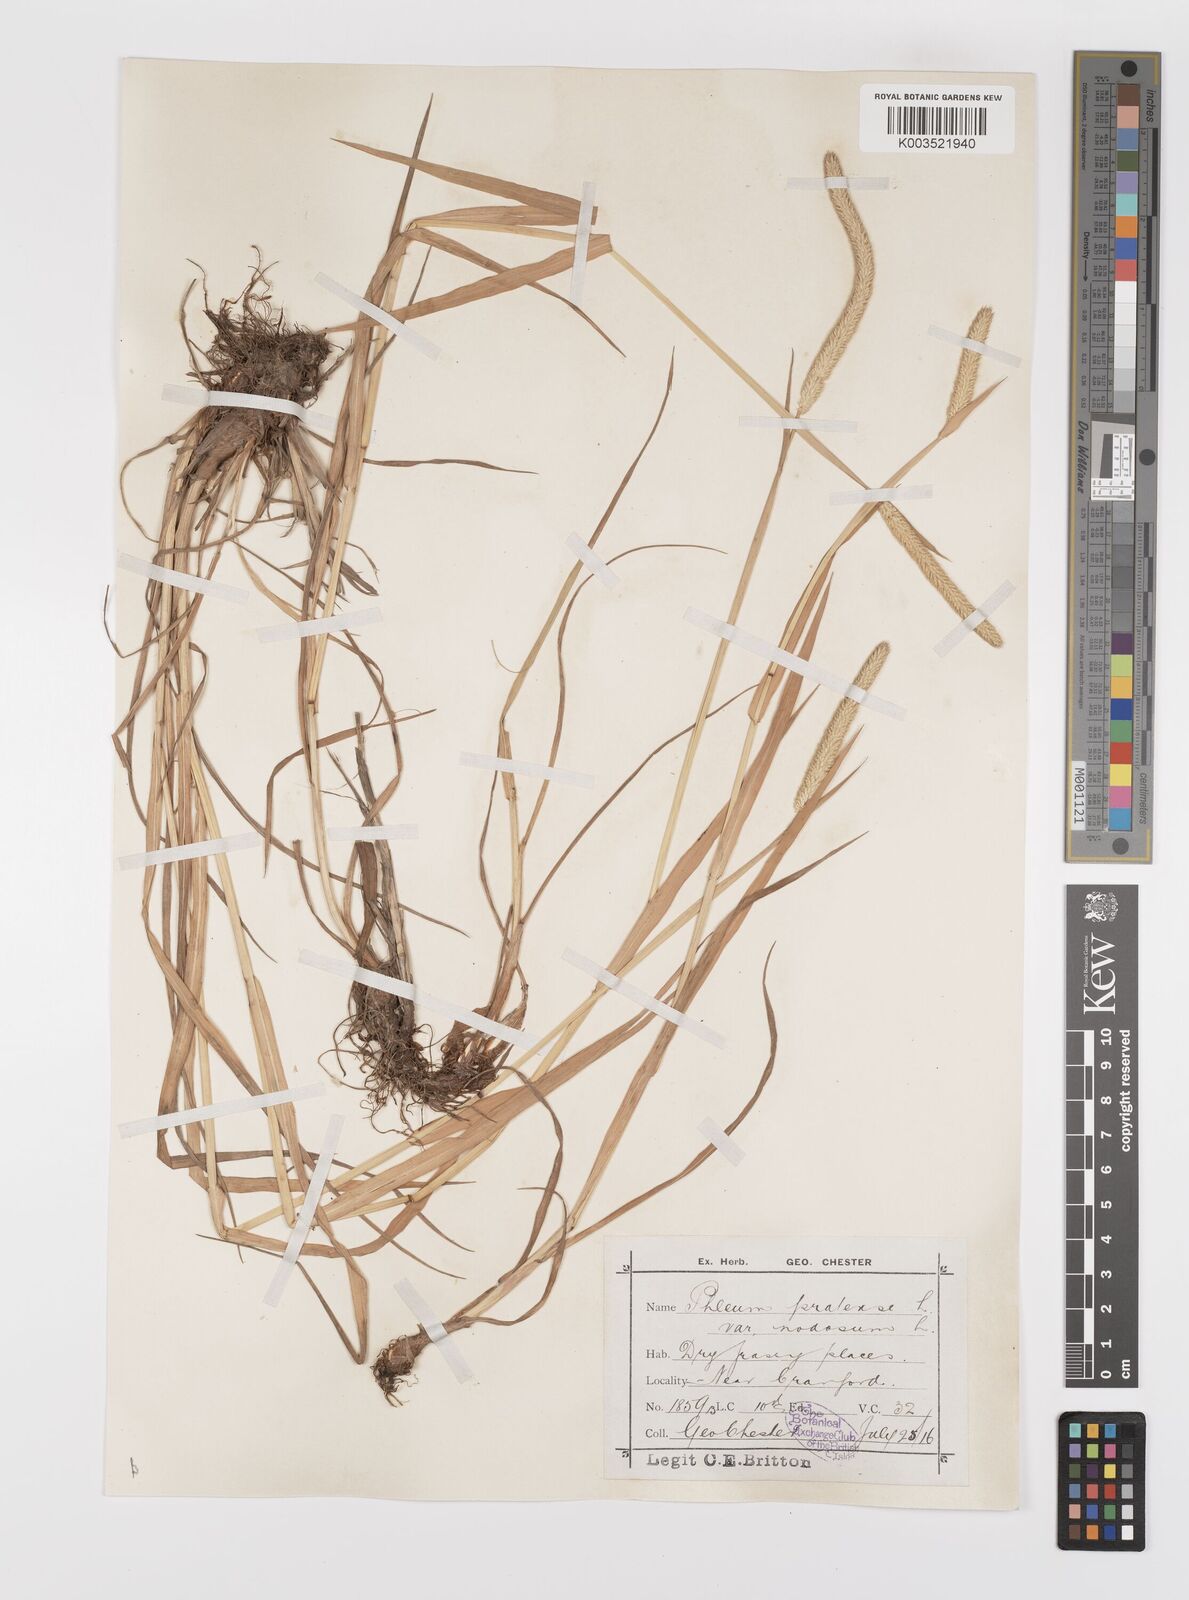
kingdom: Plantae
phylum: Tracheophyta
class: Liliopsida
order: Poales
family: Poaceae
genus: Phleum
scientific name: Phleum bertolonii
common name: Smaller cat's-tail
